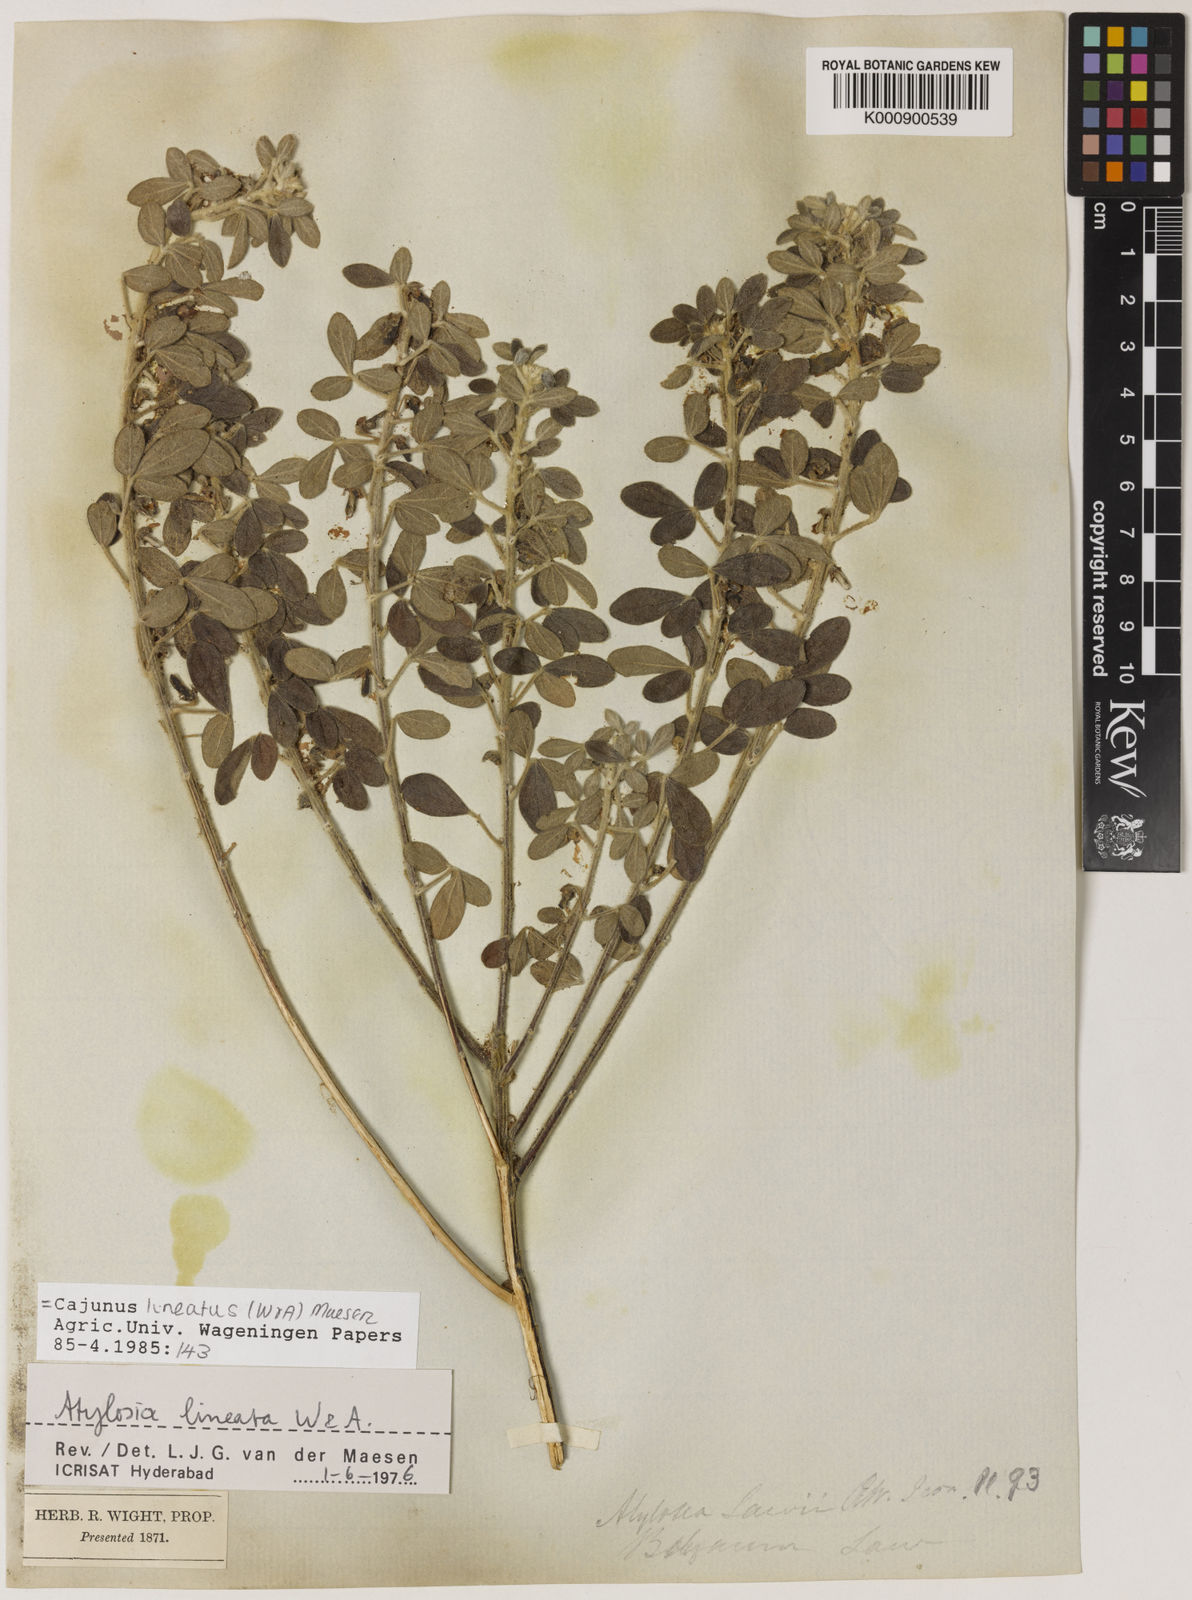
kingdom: Plantae
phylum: Tracheophyta
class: Magnoliopsida
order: Fabales
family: Fabaceae
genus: Cajanus
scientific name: Cajanus lineatus
